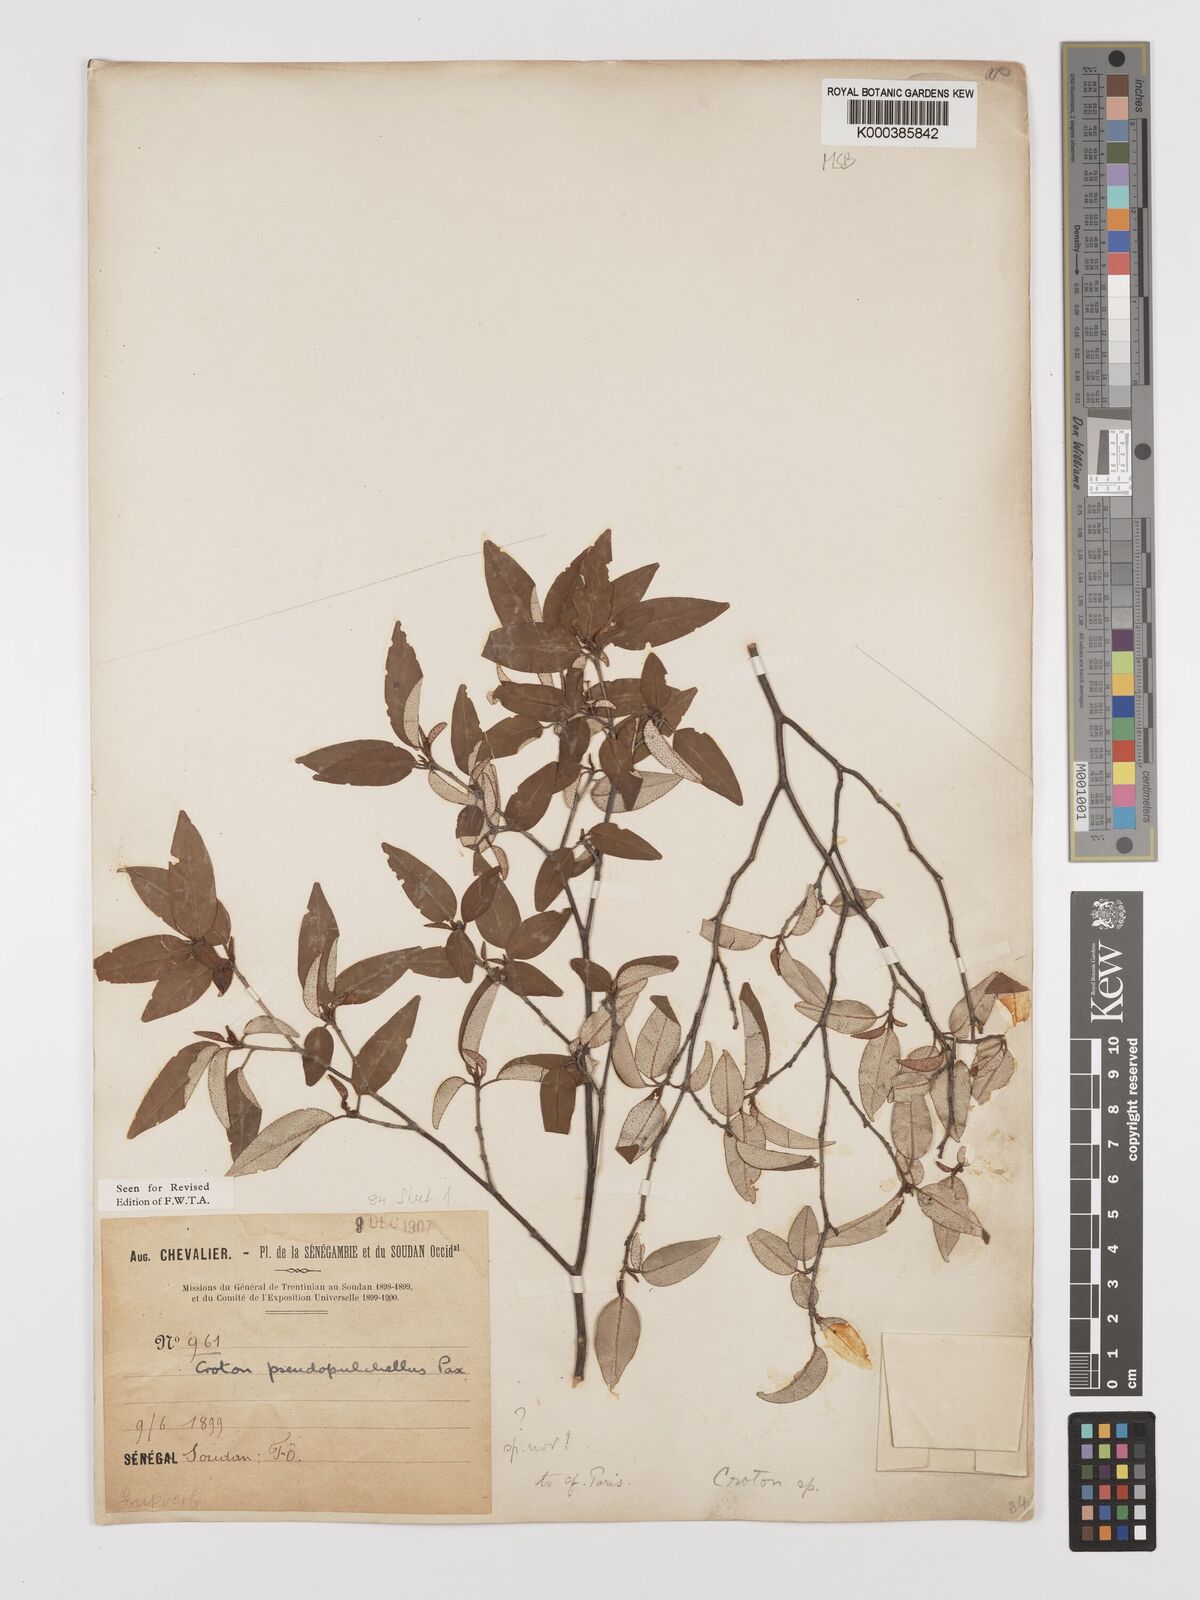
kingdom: Plantae
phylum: Tracheophyta
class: Magnoliopsida
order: Malpighiales
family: Euphorbiaceae
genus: Croton
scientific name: Croton pseudopulchellus
